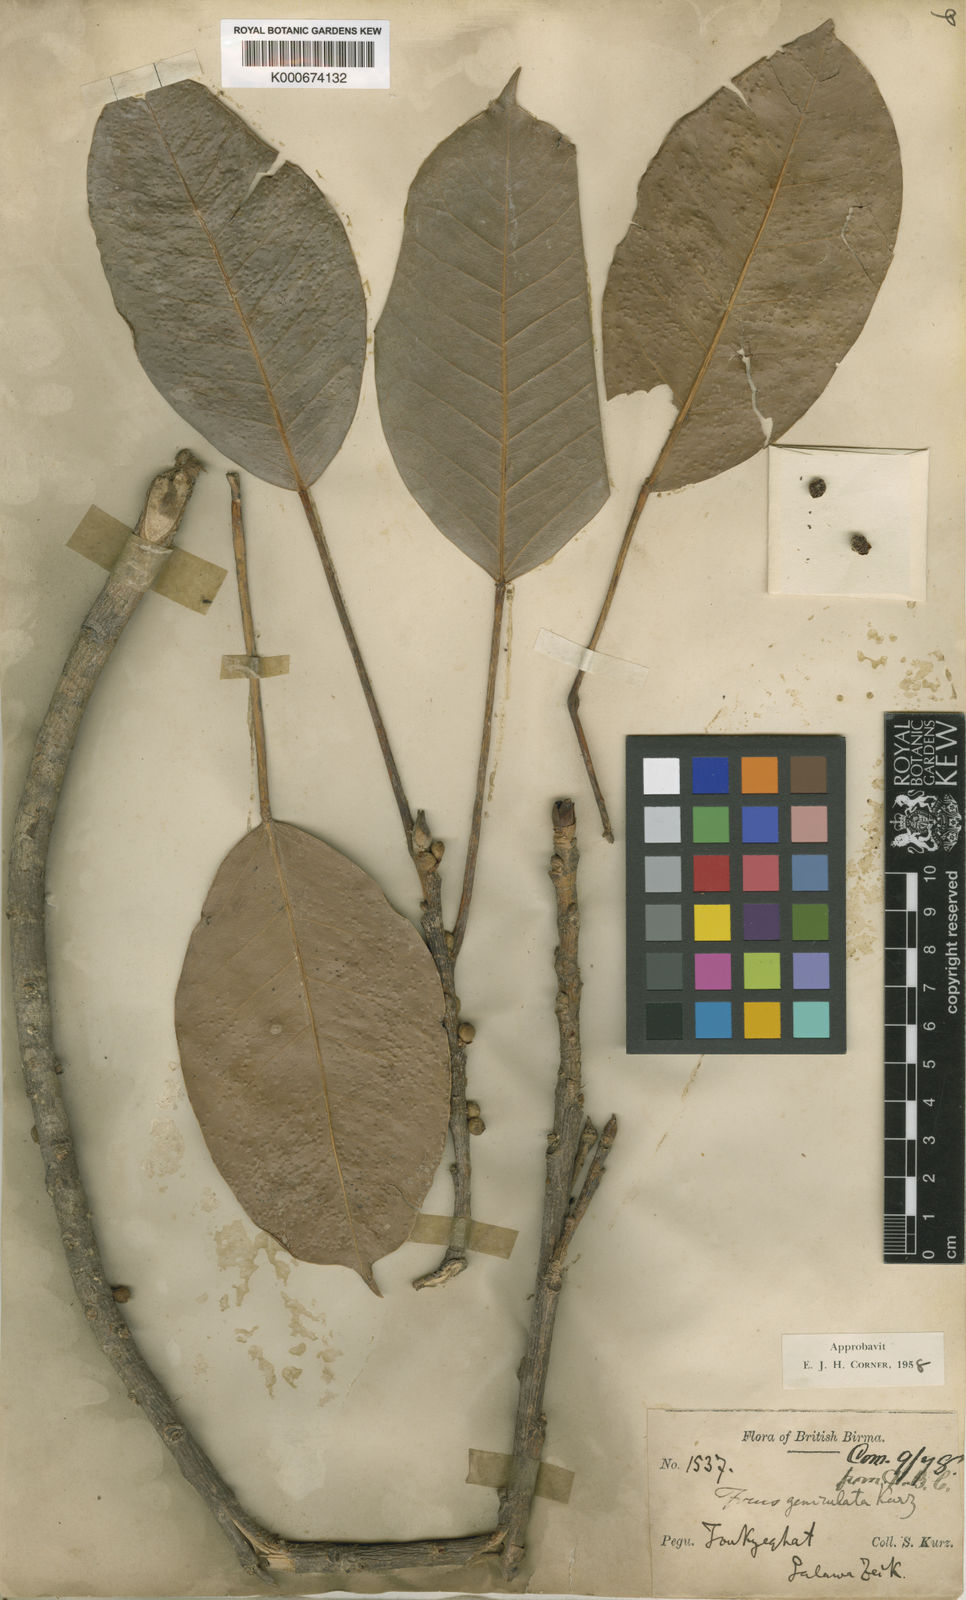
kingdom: Plantae
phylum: Tracheophyta
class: Magnoliopsida
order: Rosales
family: Moraceae
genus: Ficus
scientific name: Ficus geniculata
